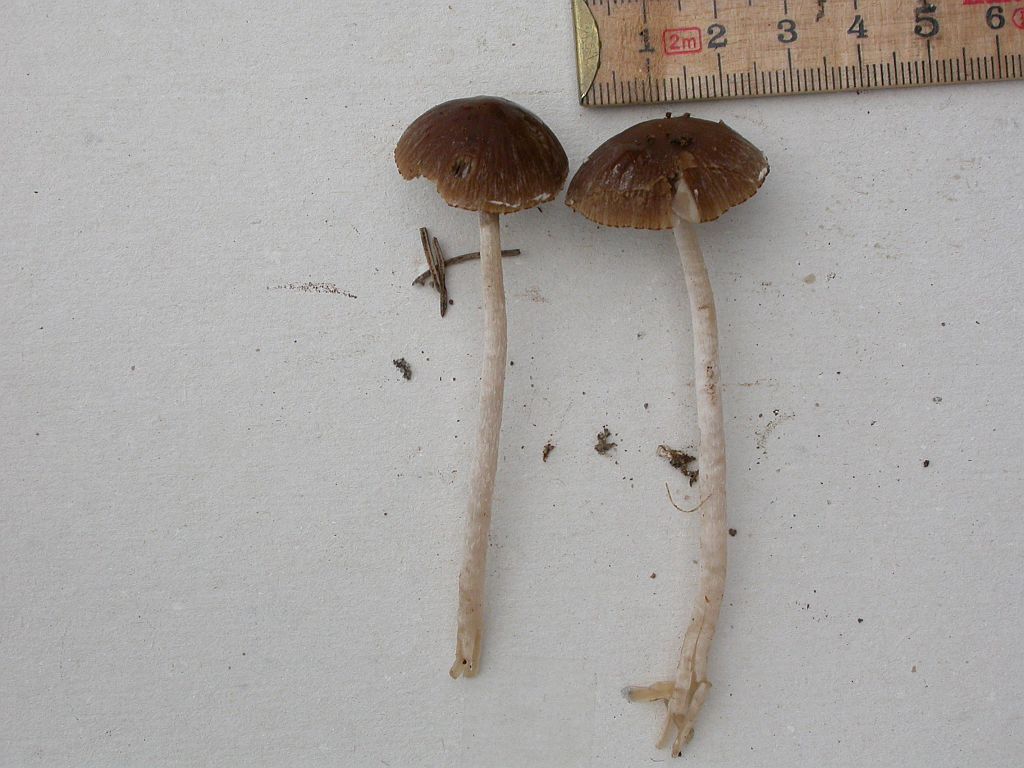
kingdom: Fungi
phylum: Basidiomycota
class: Agaricomycetes
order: Agaricales
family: Psathyrellaceae
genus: Psathyrella
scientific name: Psathyrella senex
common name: brunøjet mørkhat
